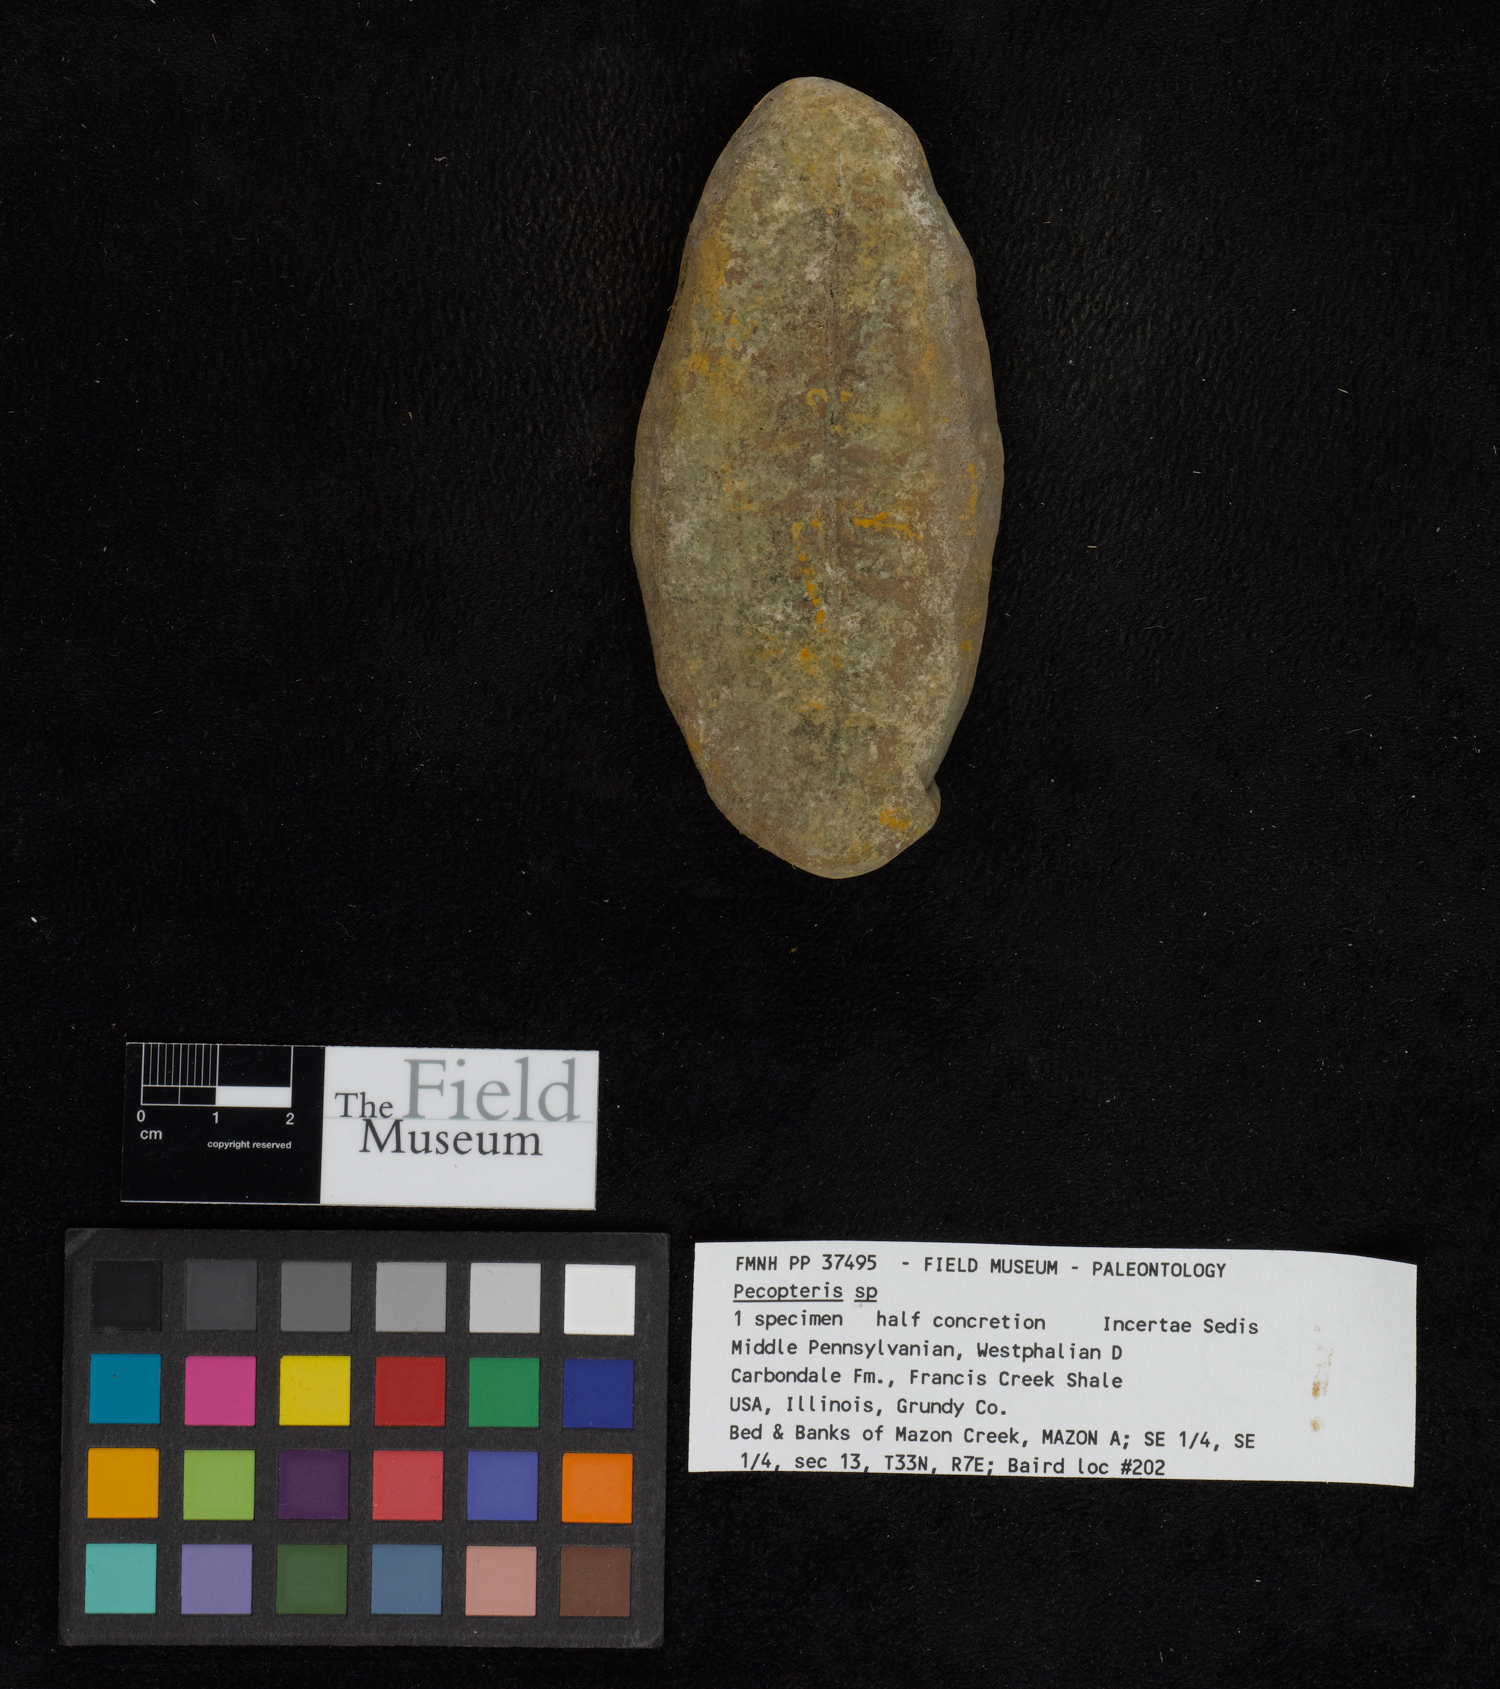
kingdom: Plantae
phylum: Tracheophyta
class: Polypodiopsida
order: Marattiales
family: Asterothecaceae
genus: Pecopteris
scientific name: Pecopteris
